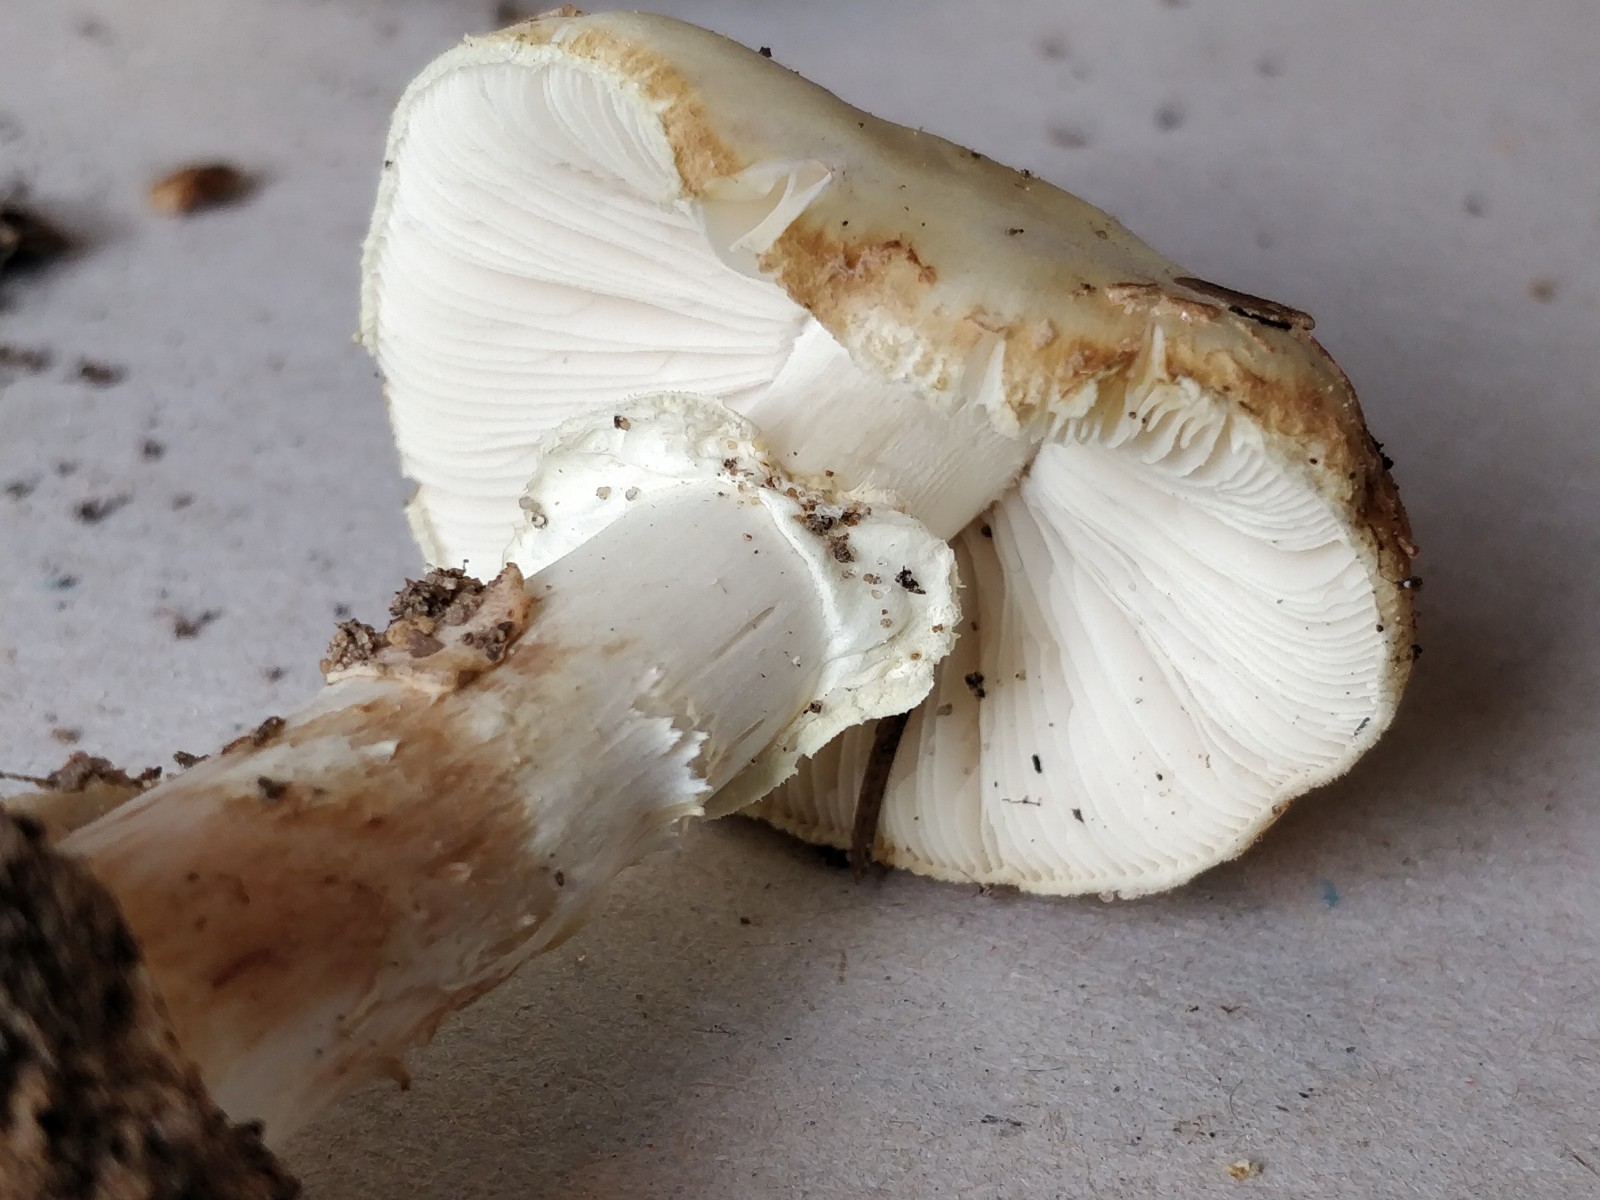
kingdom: Fungi
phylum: Basidiomycota
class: Agaricomycetes
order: Agaricales
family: Amanitaceae
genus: Amanita
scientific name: Amanita citrina
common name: kugleknoldet fluesvamp
